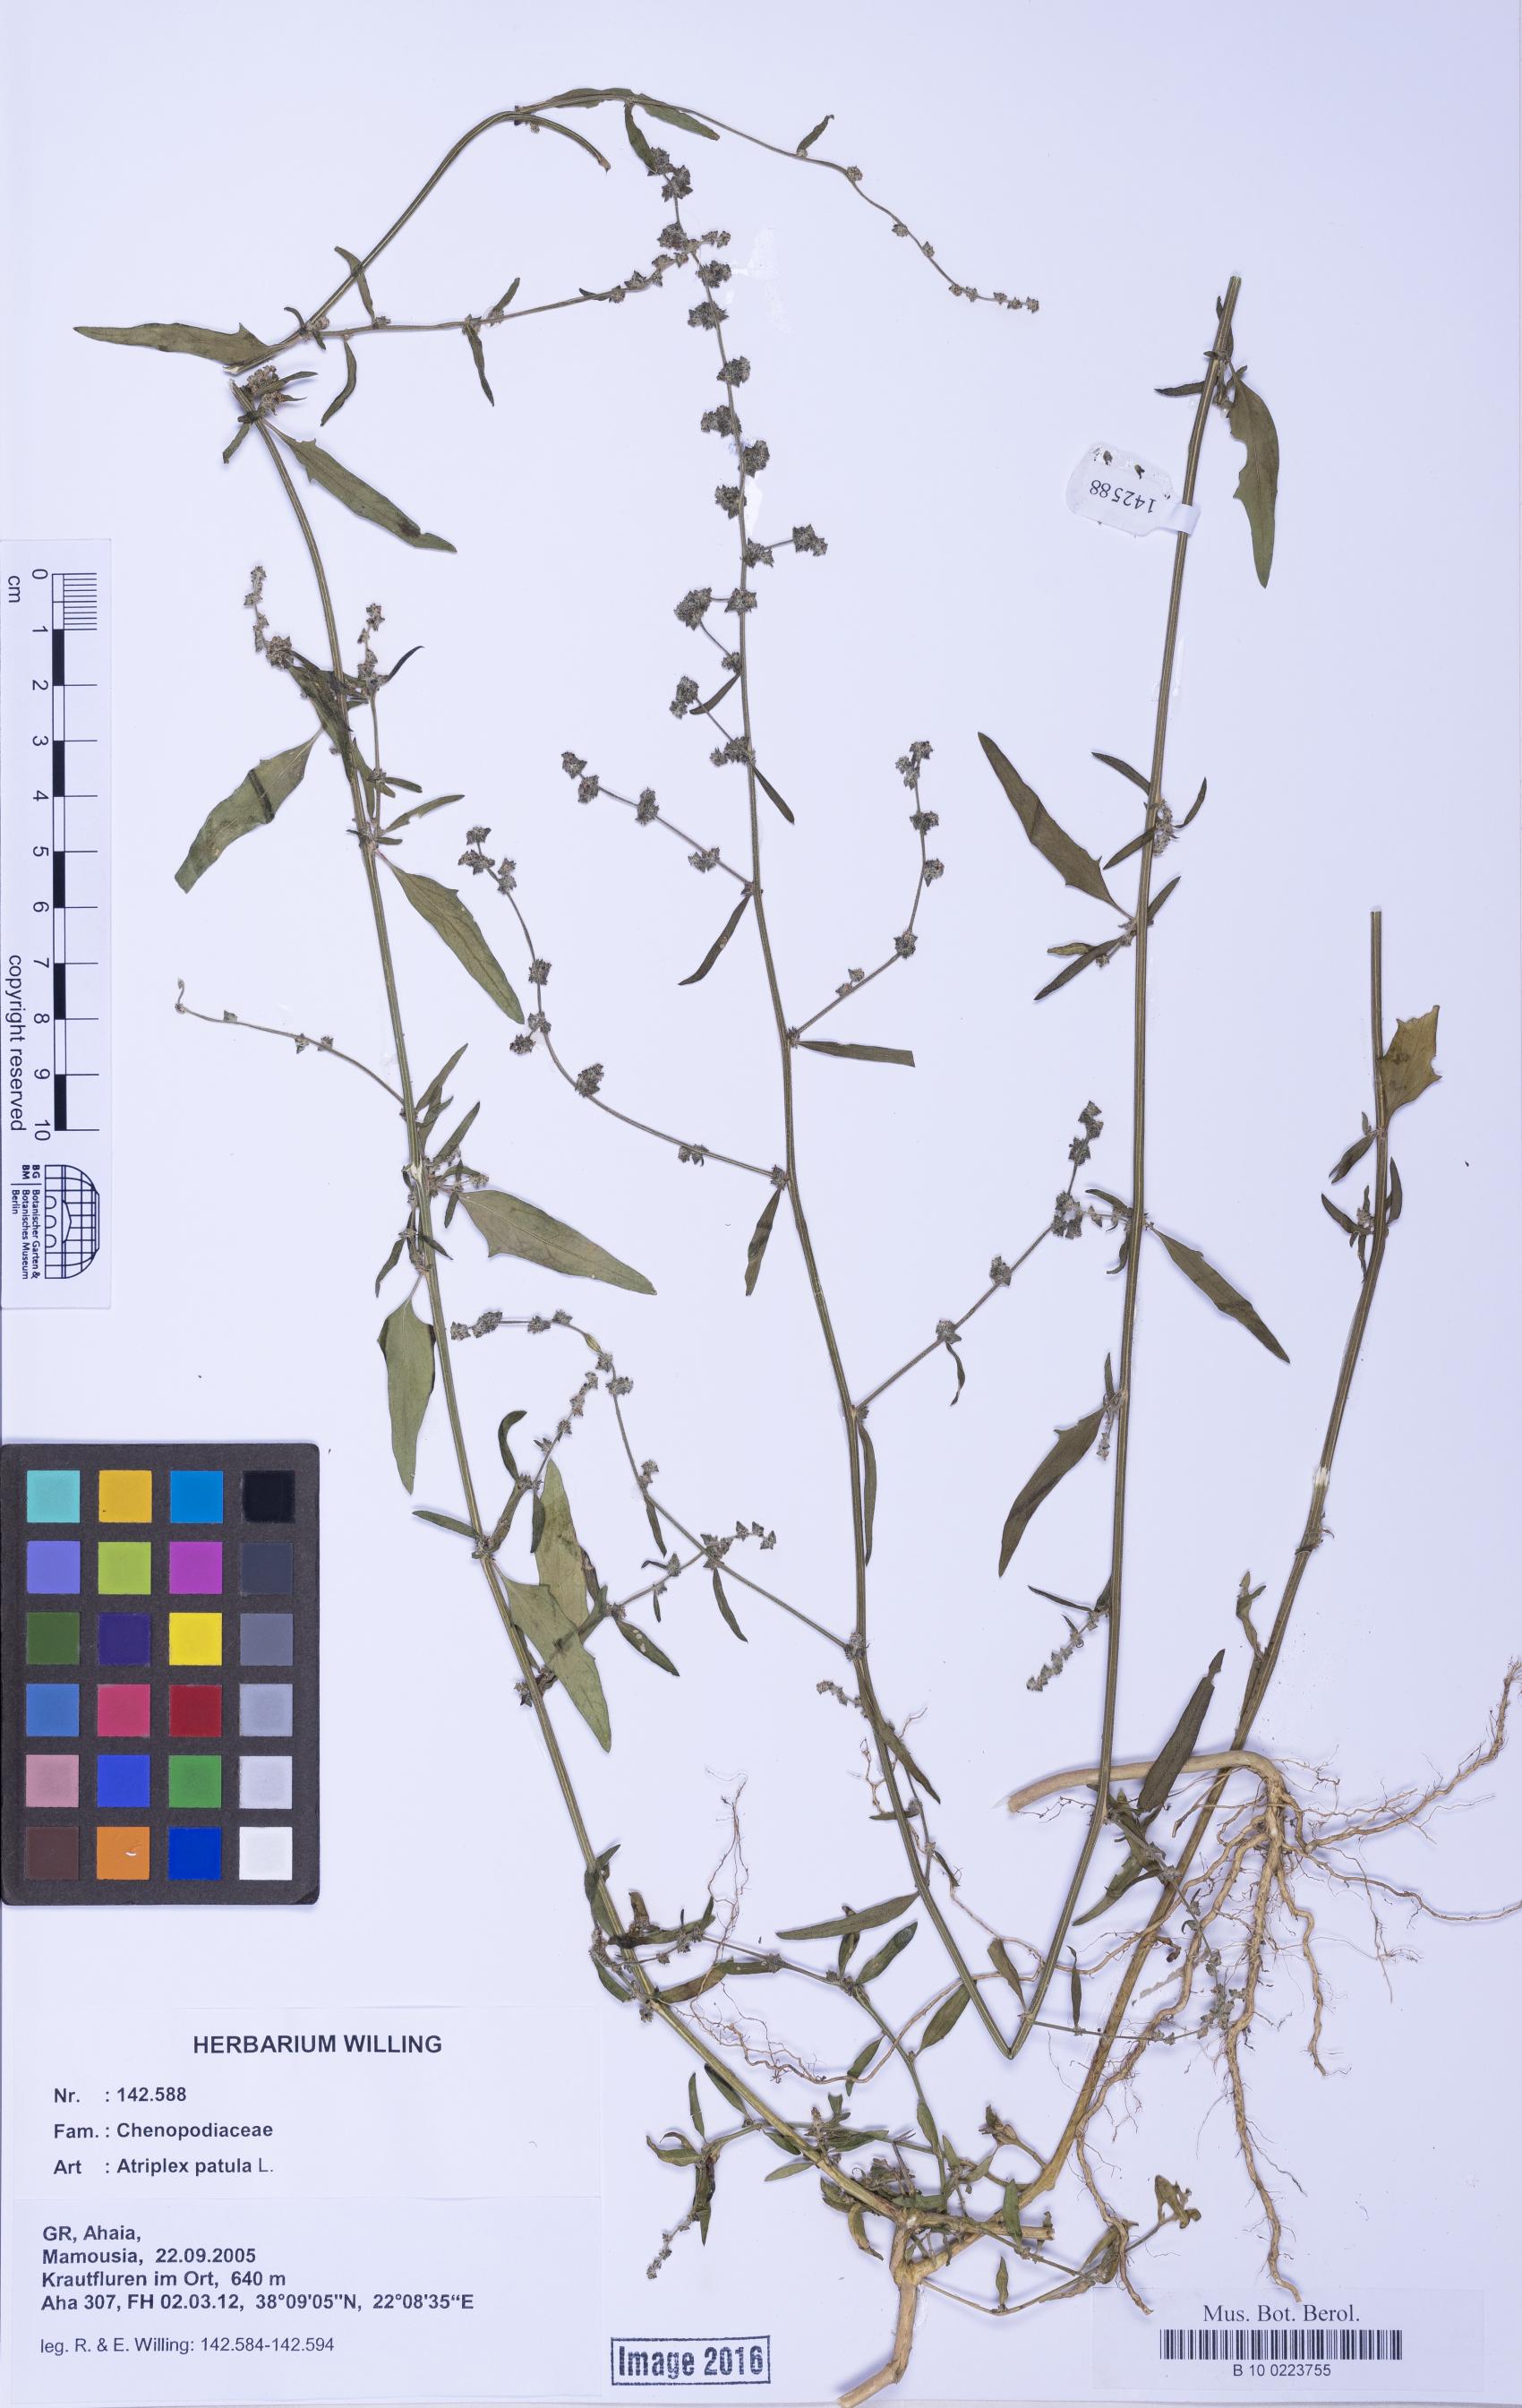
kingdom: Plantae
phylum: Tracheophyta
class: Magnoliopsida
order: Caryophyllales
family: Amaranthaceae
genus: Atriplex
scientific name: Atriplex patula
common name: Common orache
